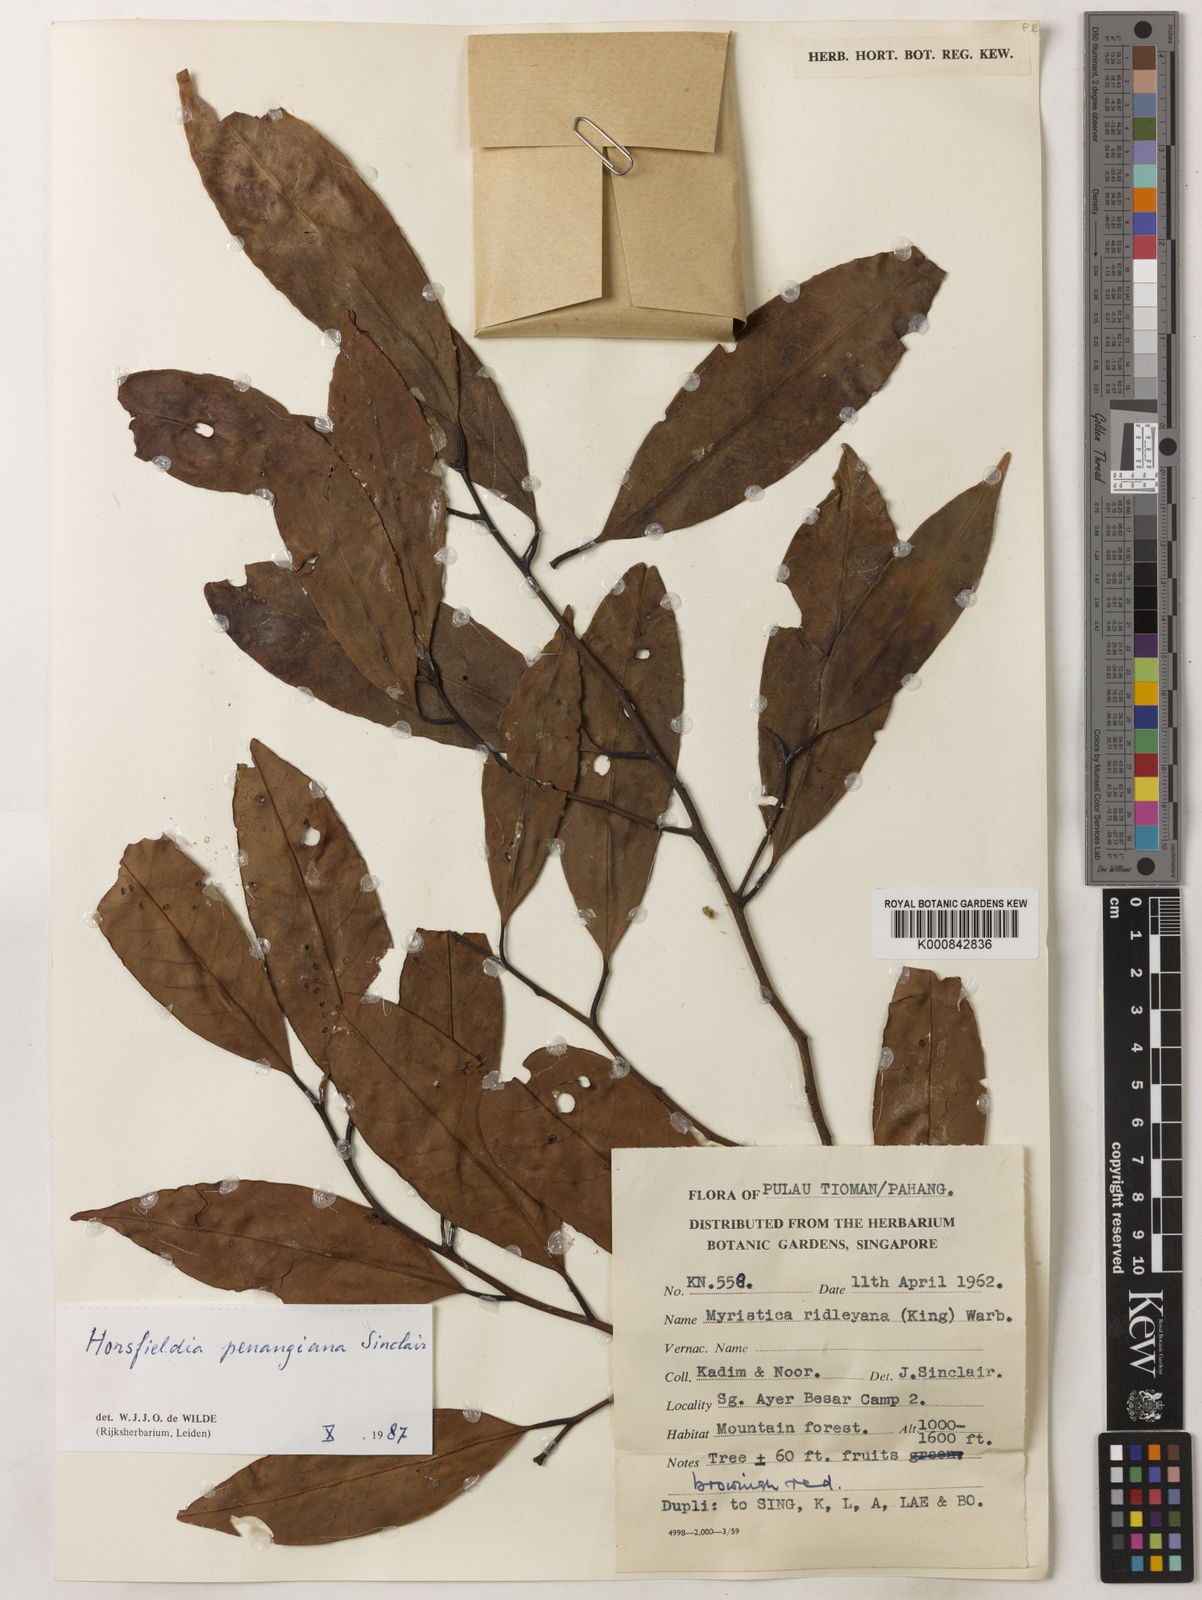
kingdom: Plantae
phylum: Tracheophyta
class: Magnoliopsida
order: Magnoliales
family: Myristicaceae
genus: Horsfieldia
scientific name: Horsfieldia
